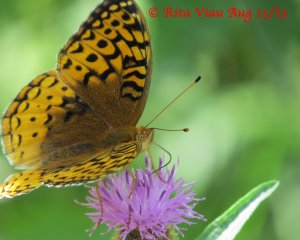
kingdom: Animalia
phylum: Arthropoda
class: Insecta
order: Lepidoptera
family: Nymphalidae
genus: Speyeria
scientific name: Speyeria cybele
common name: Great Spangled Fritillary
